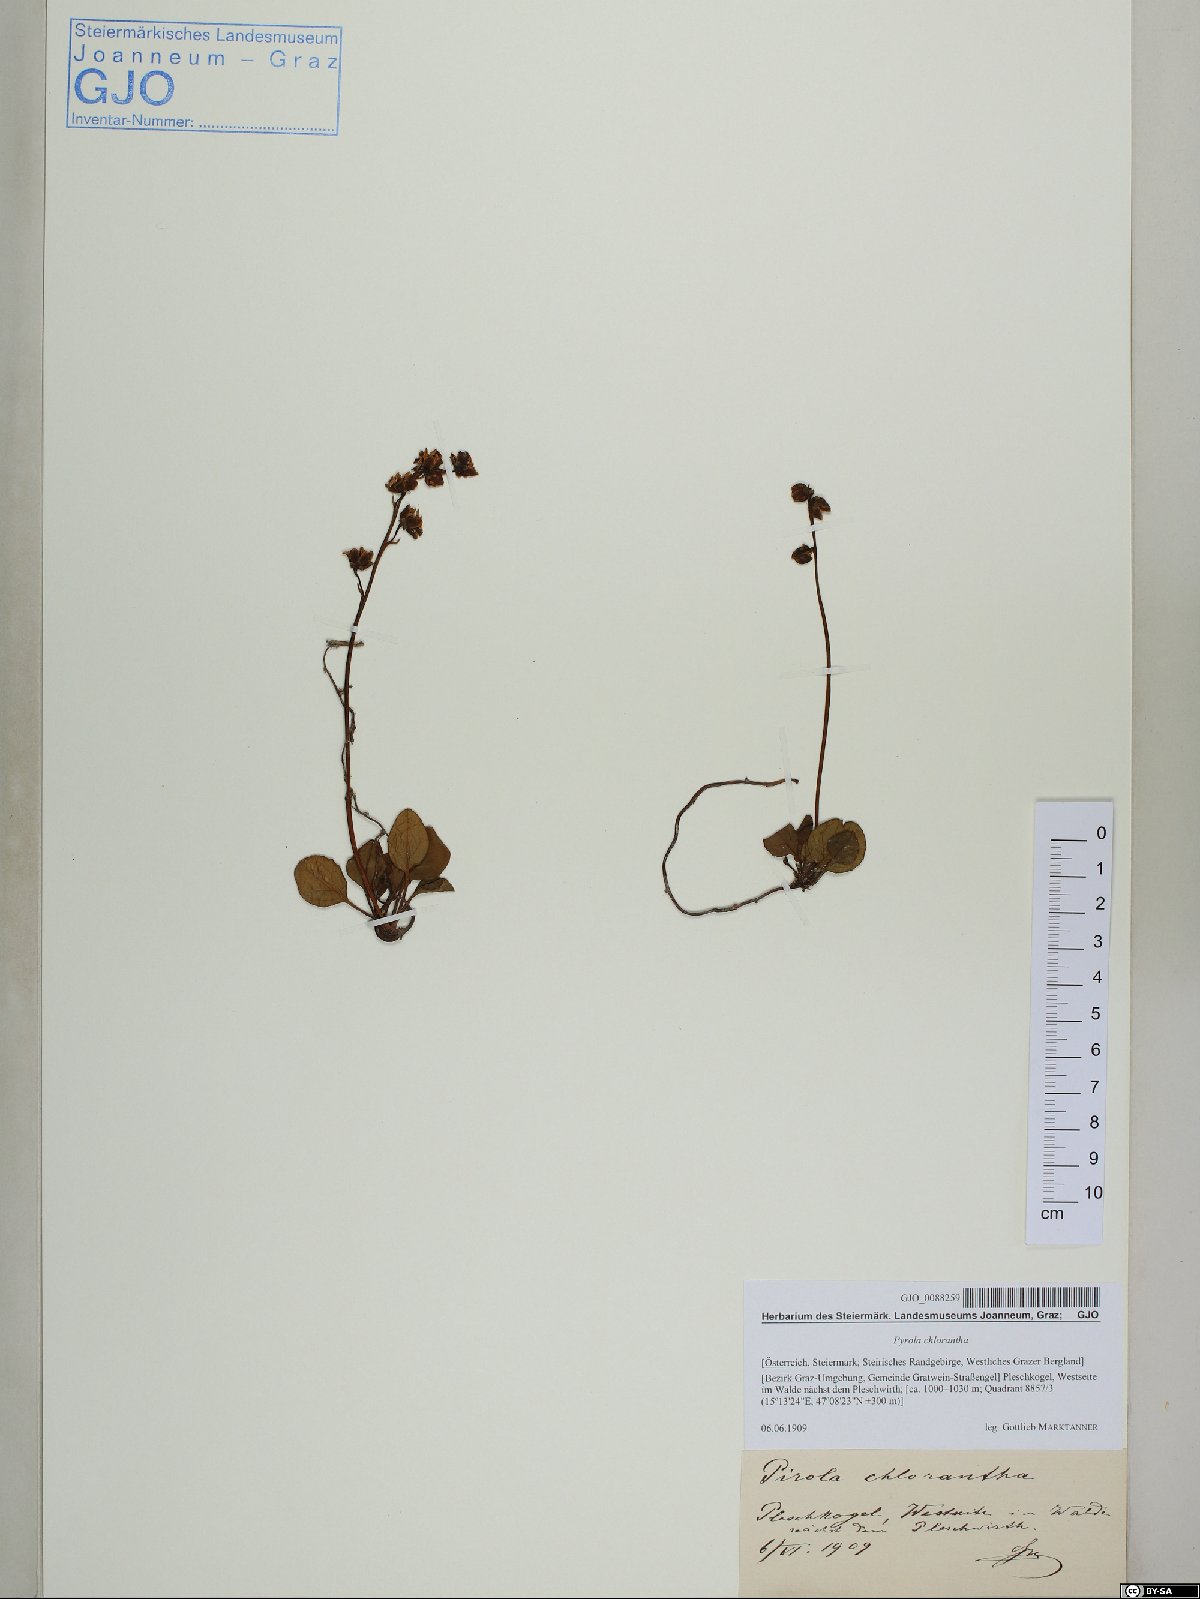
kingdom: Plantae
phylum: Tracheophyta
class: Magnoliopsida
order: Ericales
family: Ericaceae
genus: Pyrola
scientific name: Pyrola chlorantha
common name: Green wintergreen
